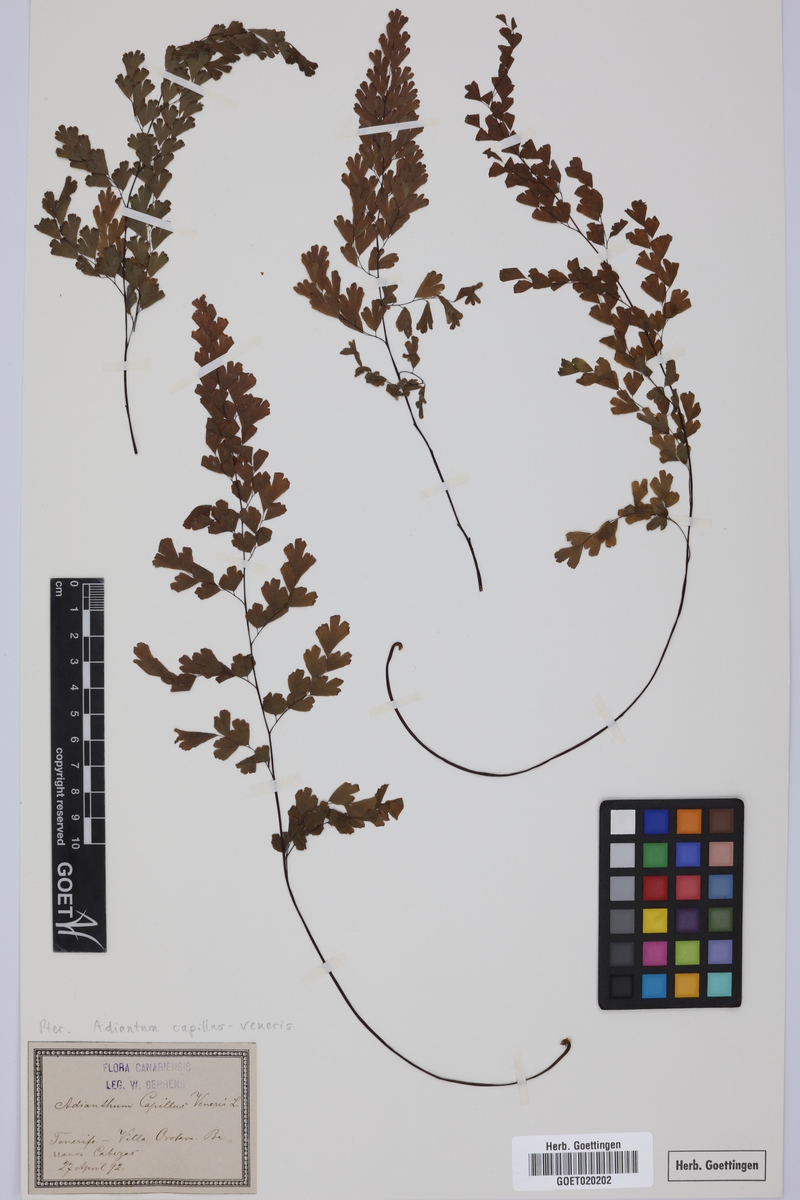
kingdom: Plantae
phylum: Tracheophyta
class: Polypodiopsida
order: Polypodiales
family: Pteridaceae
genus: Adiantum
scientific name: Adiantum capillus-veneris
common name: Maidenhair fern
